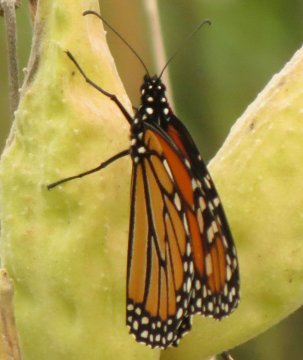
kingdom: Animalia
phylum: Arthropoda
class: Insecta
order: Lepidoptera
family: Nymphalidae
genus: Danaus
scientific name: Danaus plexippus
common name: Monarch
